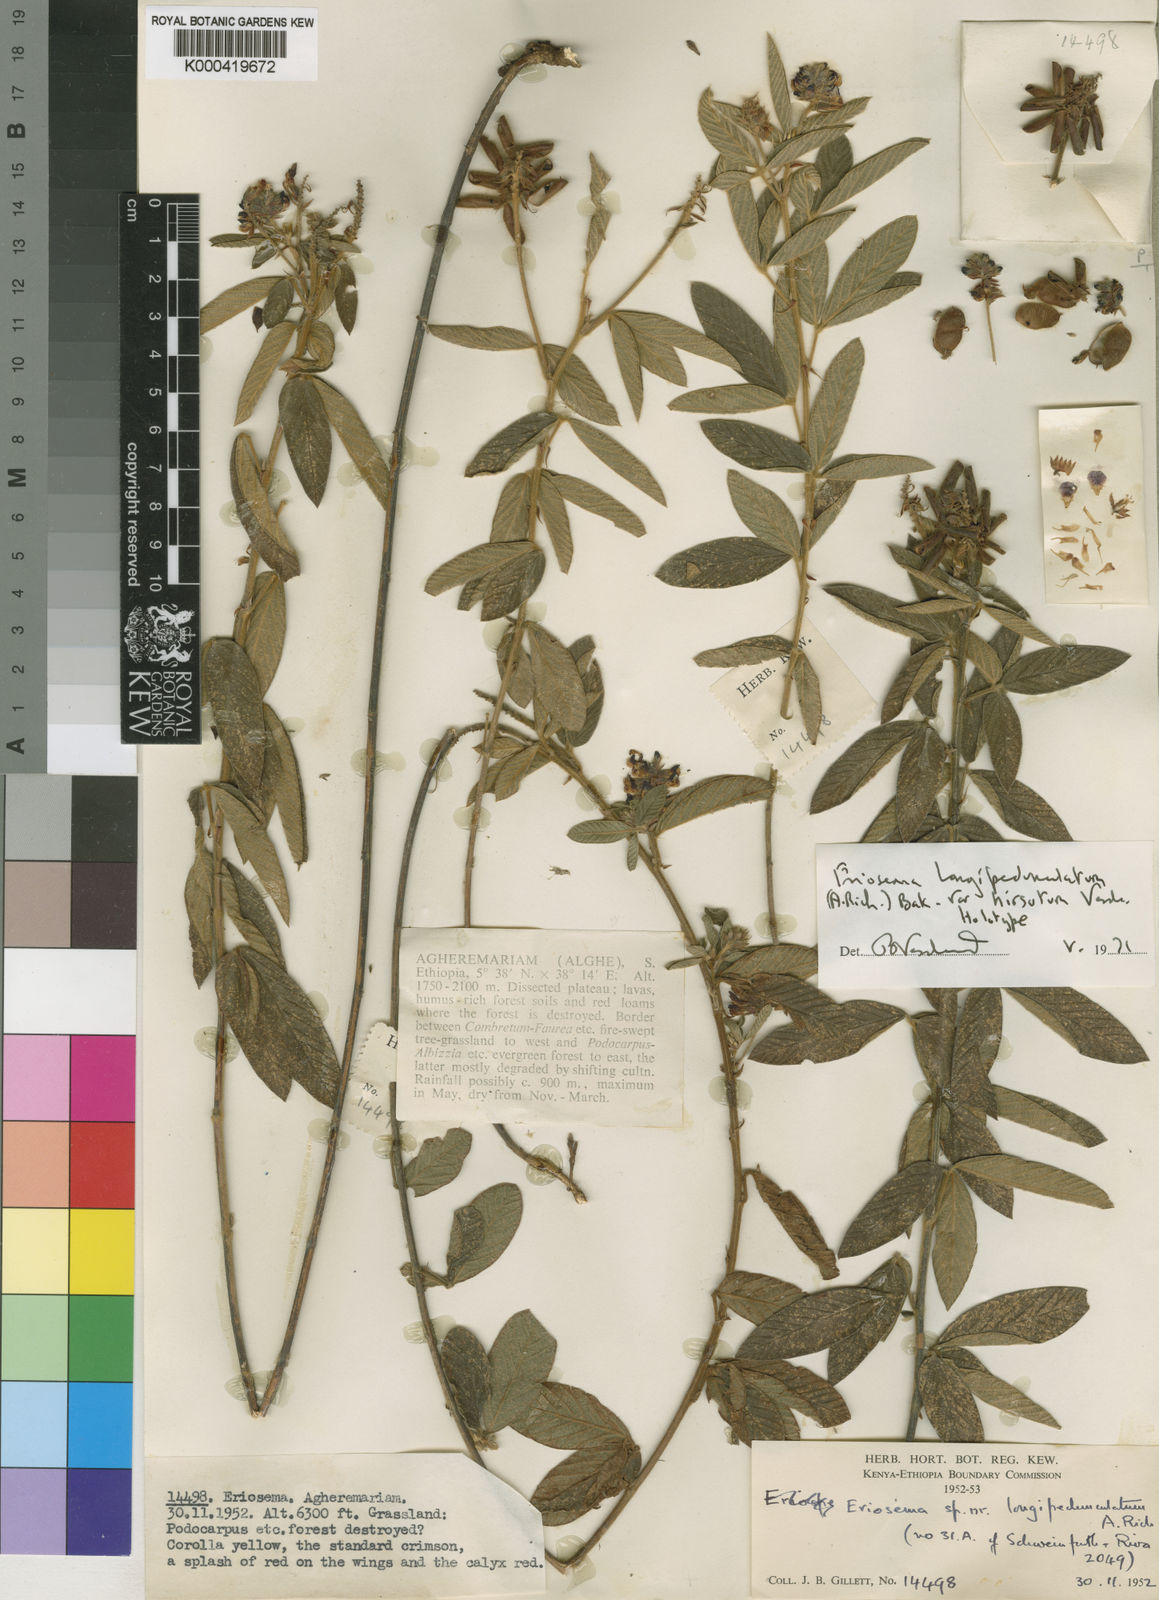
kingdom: Plantae
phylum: Tracheophyta
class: Magnoliopsida
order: Fabales
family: Fabaceae
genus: Eriosema
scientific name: Eriosema
